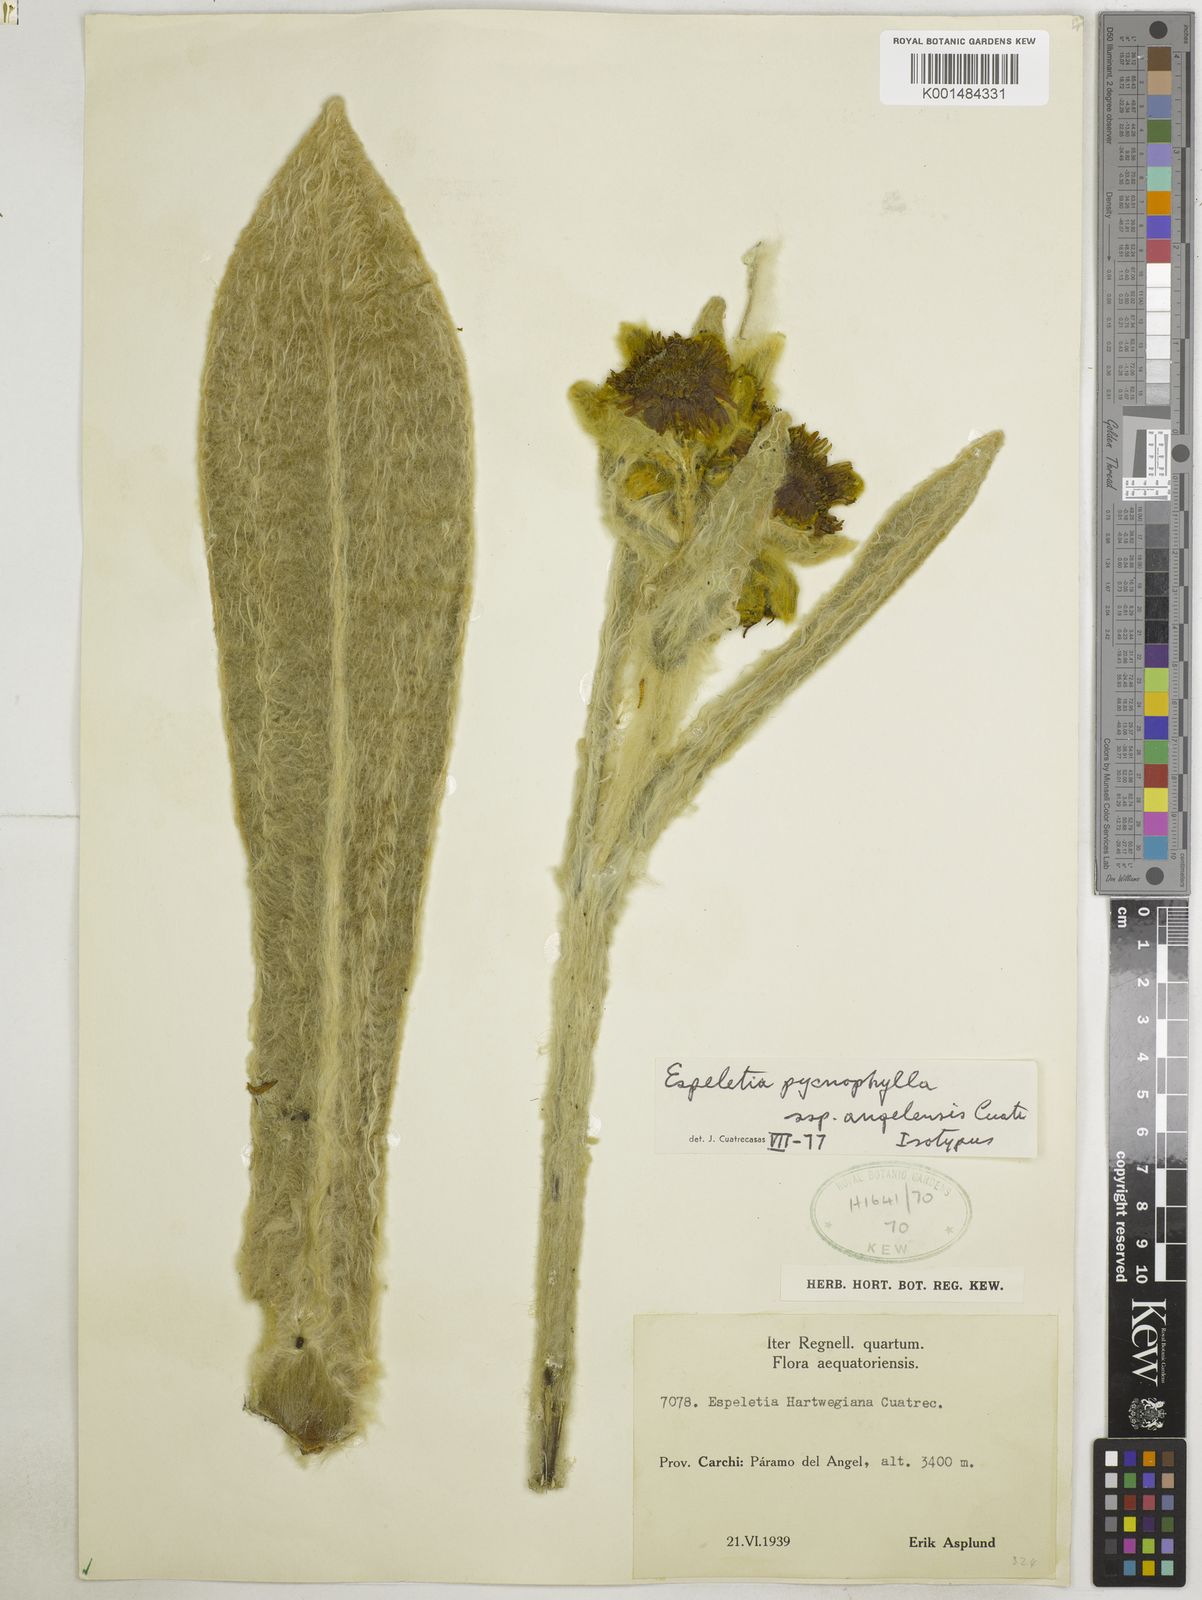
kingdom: Plantae
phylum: Tracheophyta
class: Magnoliopsida
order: Asterales
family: Asteraceae
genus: Espeletia
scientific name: Espeletia pycnophylla
